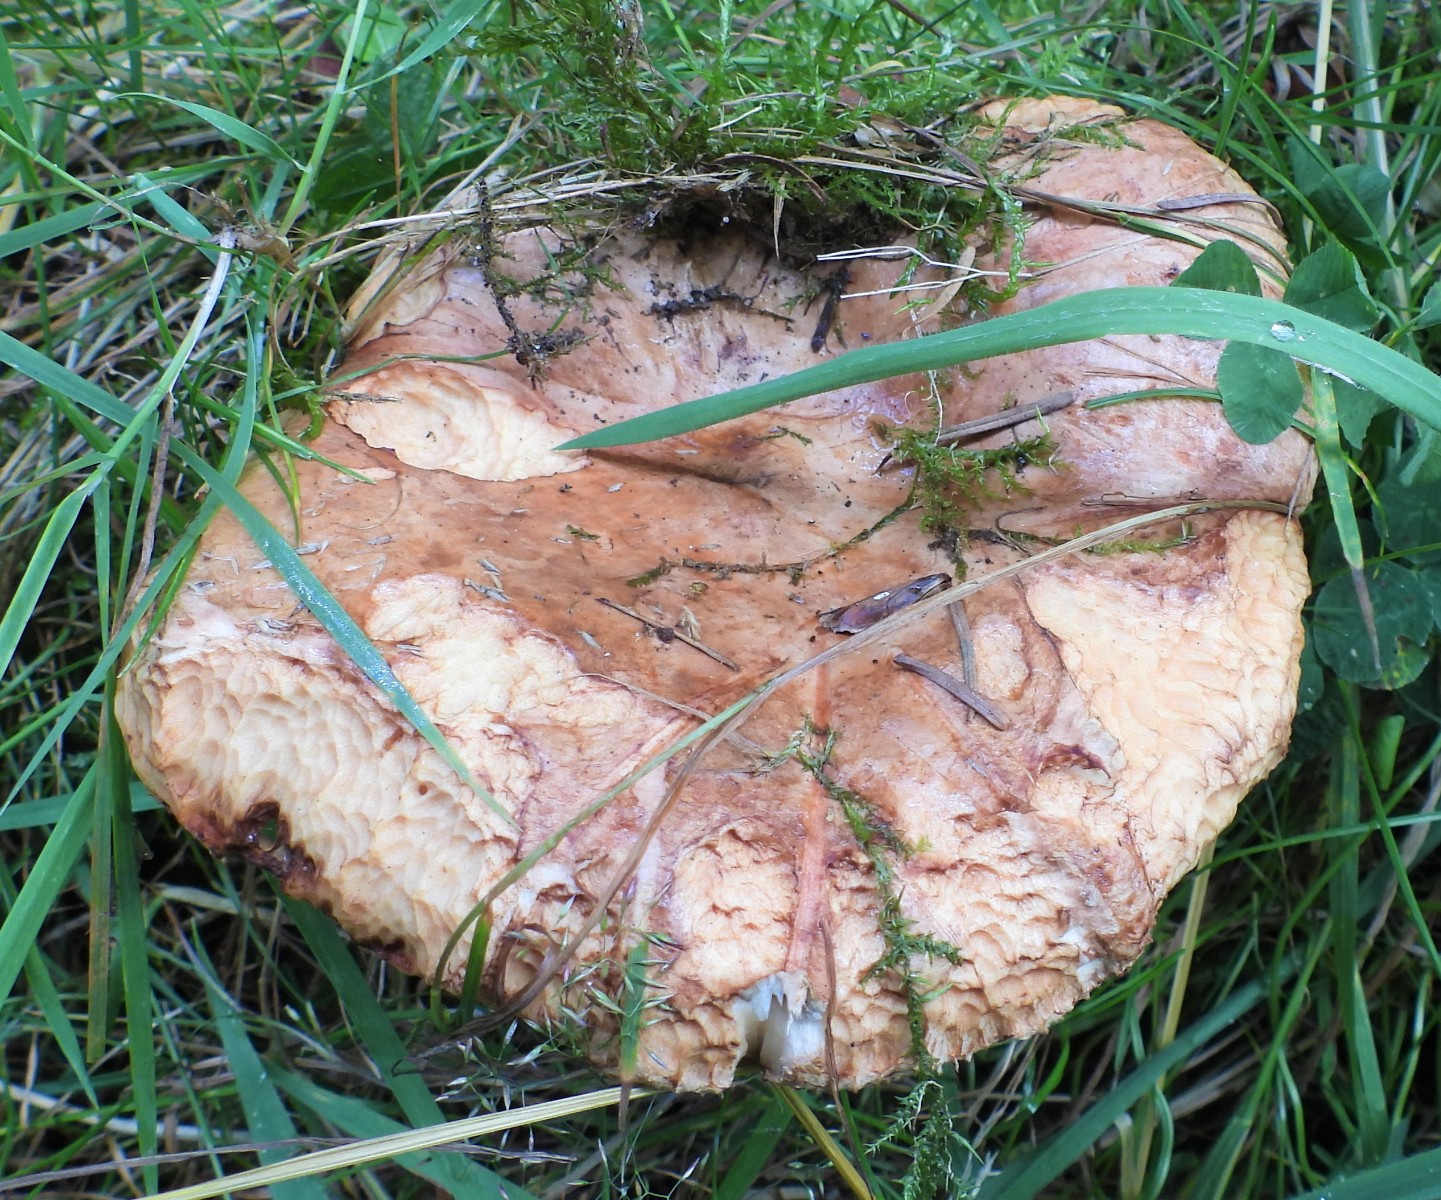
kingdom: Fungi
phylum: Basidiomycota
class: Agaricomycetes
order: Boletales
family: Paxillaceae
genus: Paxillus
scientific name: Paxillus
